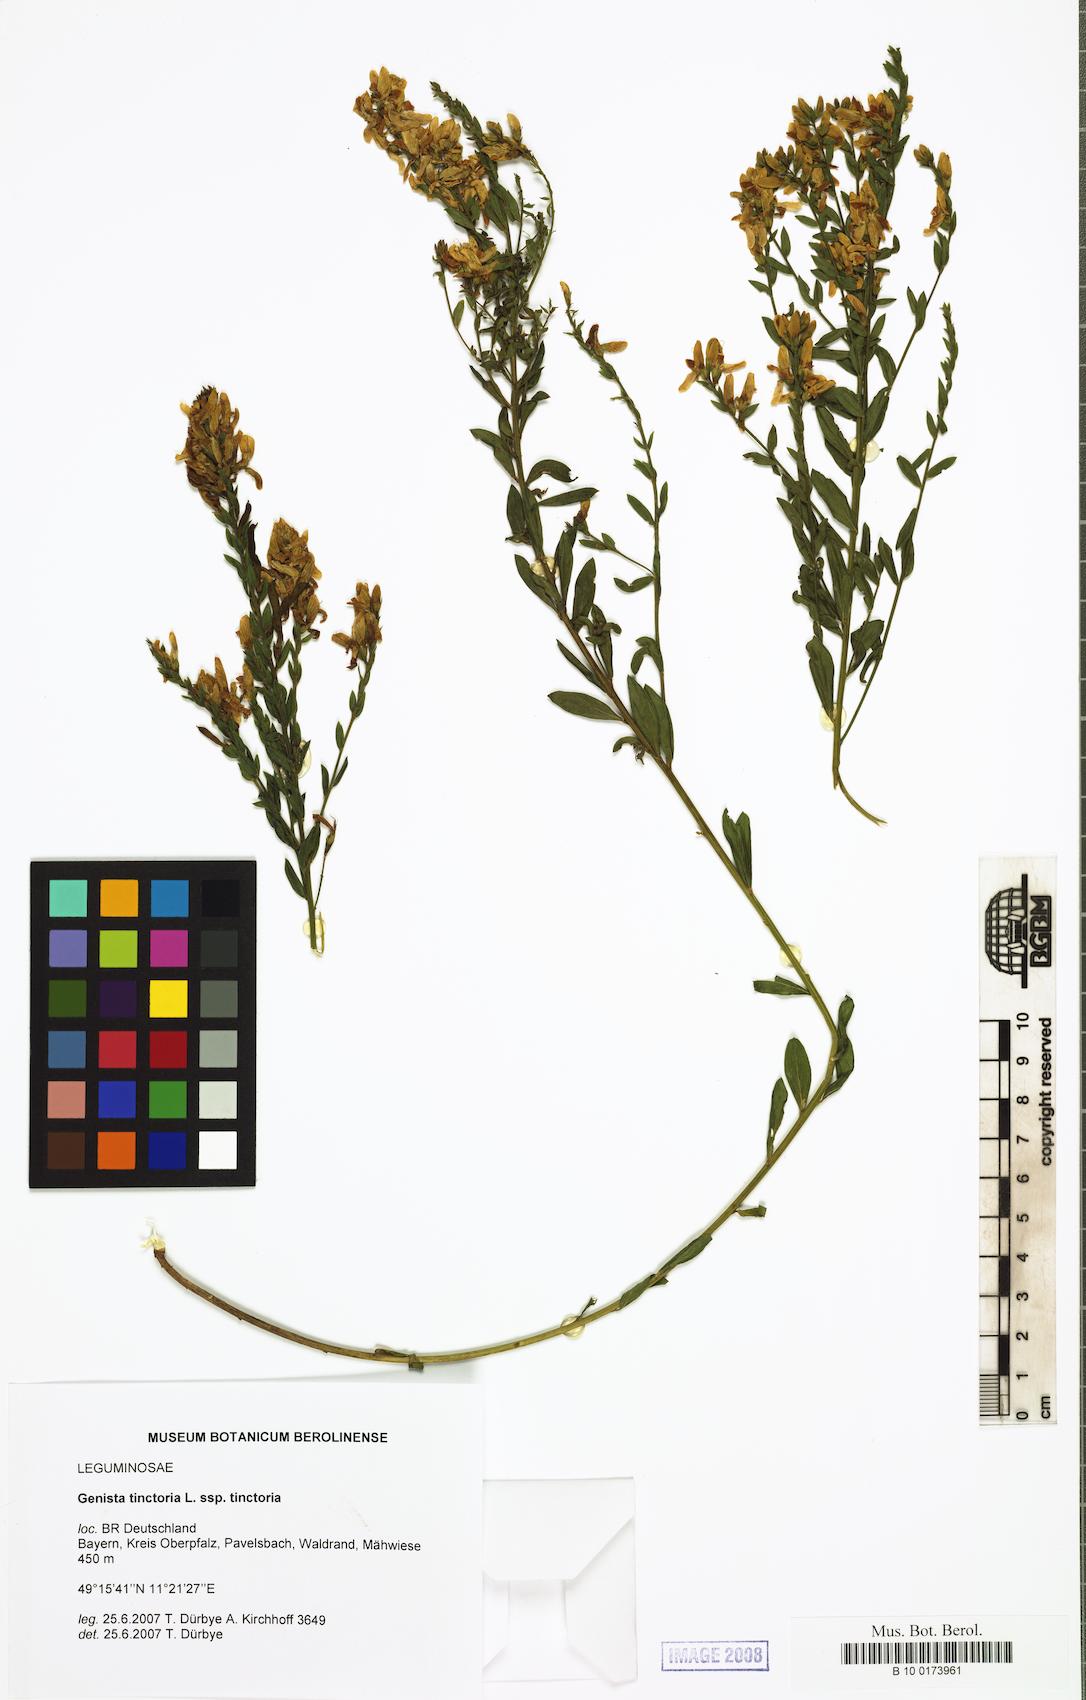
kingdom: Plantae
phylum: Tracheophyta
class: Magnoliopsida
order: Fabales
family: Fabaceae
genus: Genista
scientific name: Genista tinctoria
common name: Dyer's greenweed
